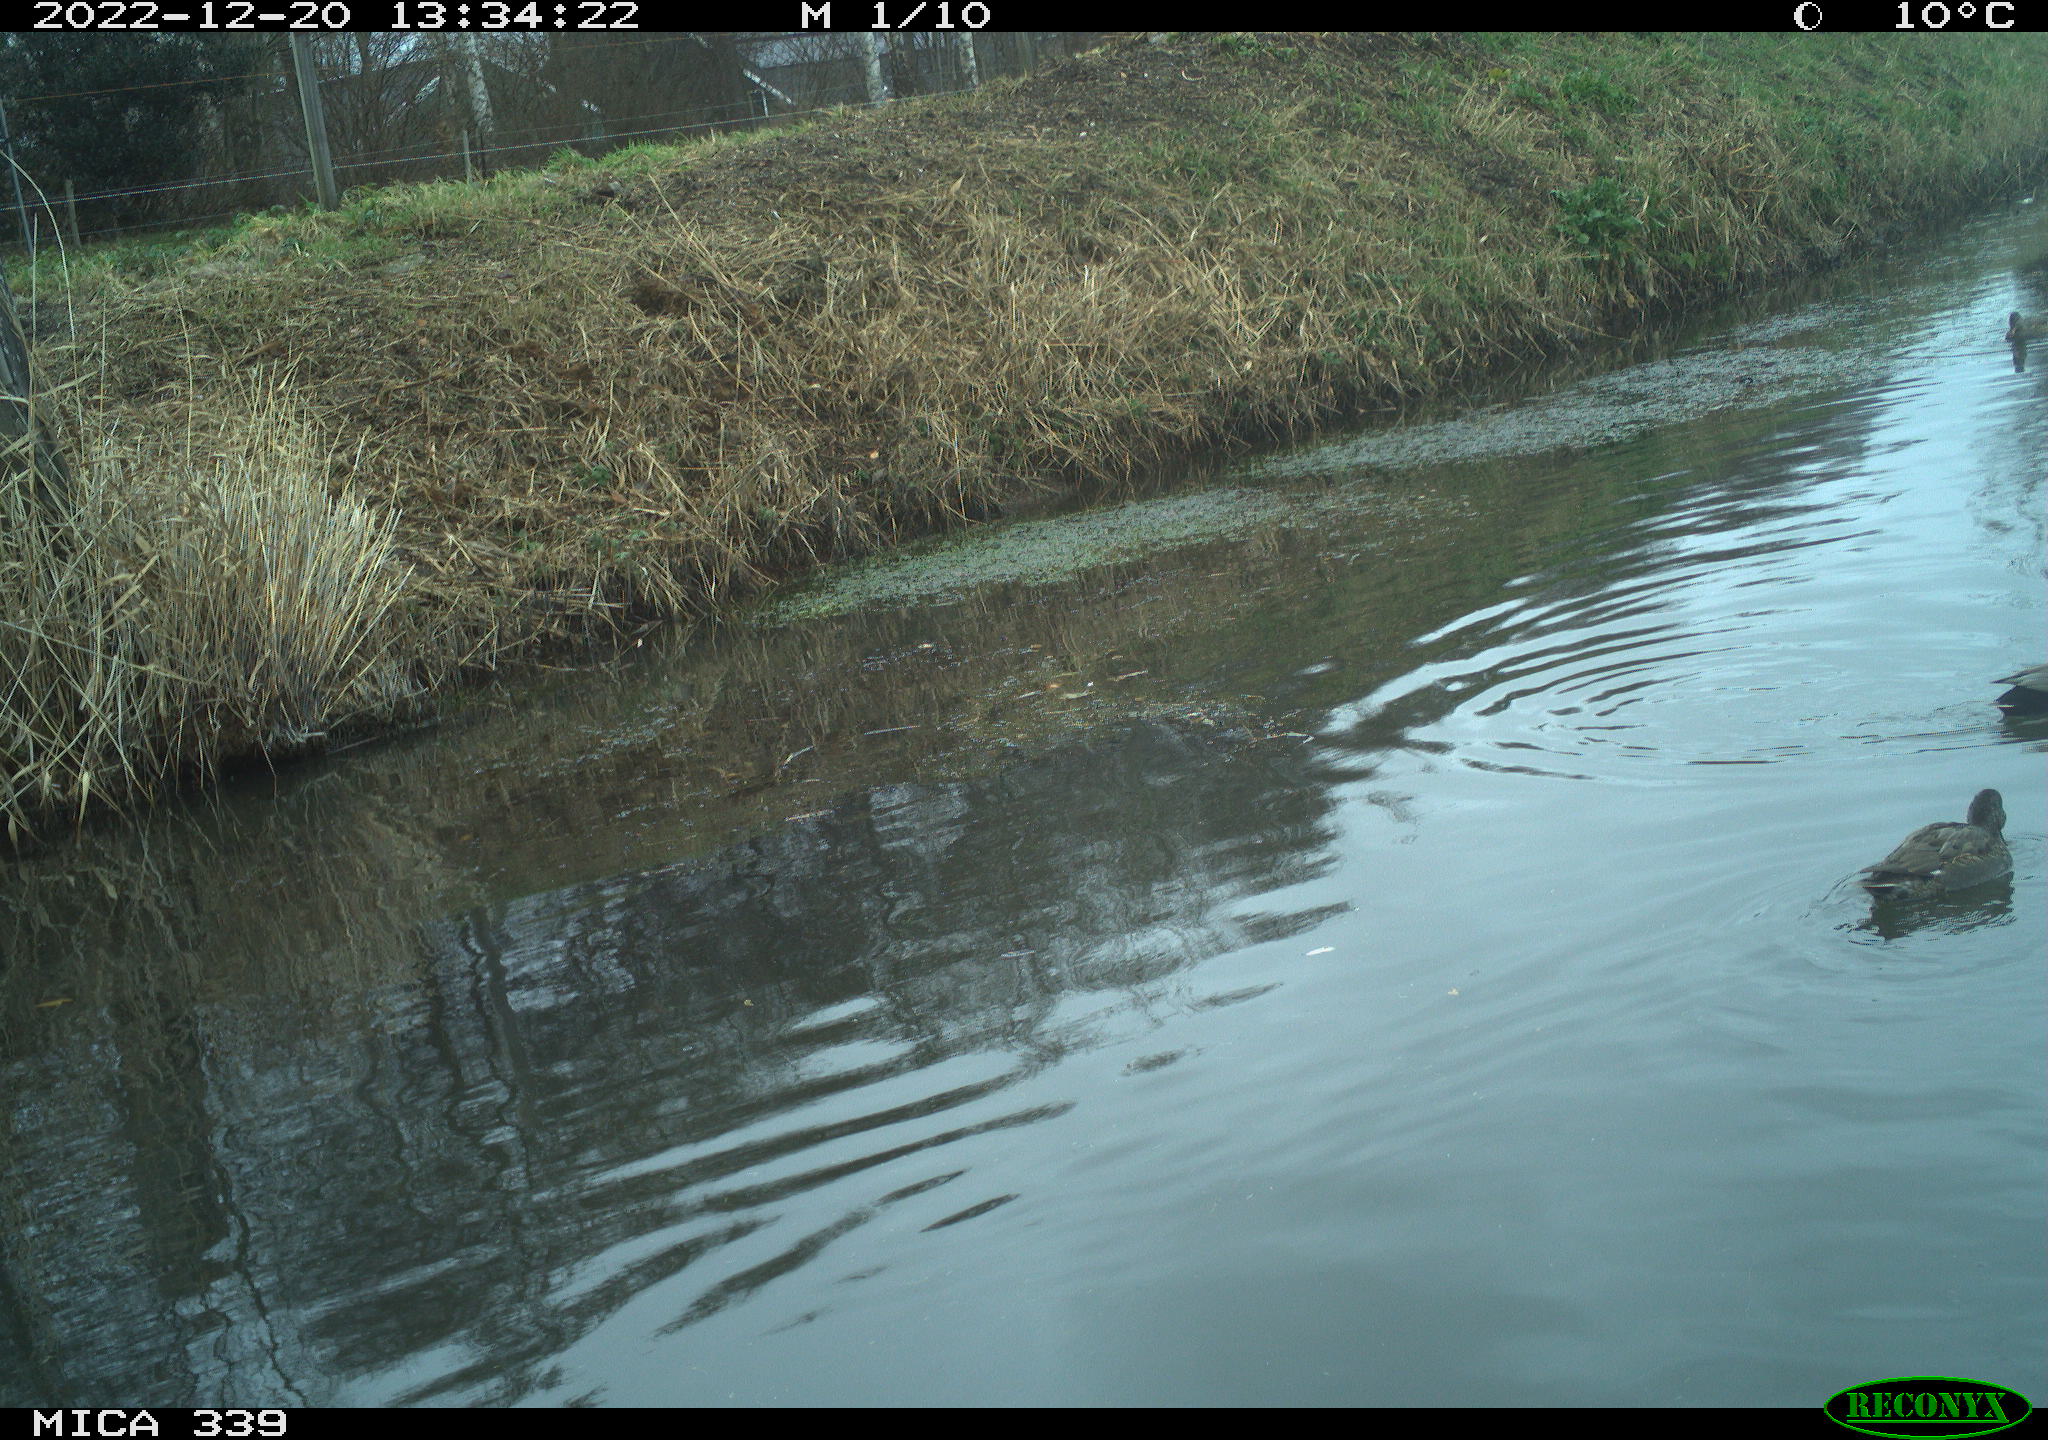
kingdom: Animalia
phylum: Chordata
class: Aves
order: Anseriformes
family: Anatidae
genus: Anas
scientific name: Anas
